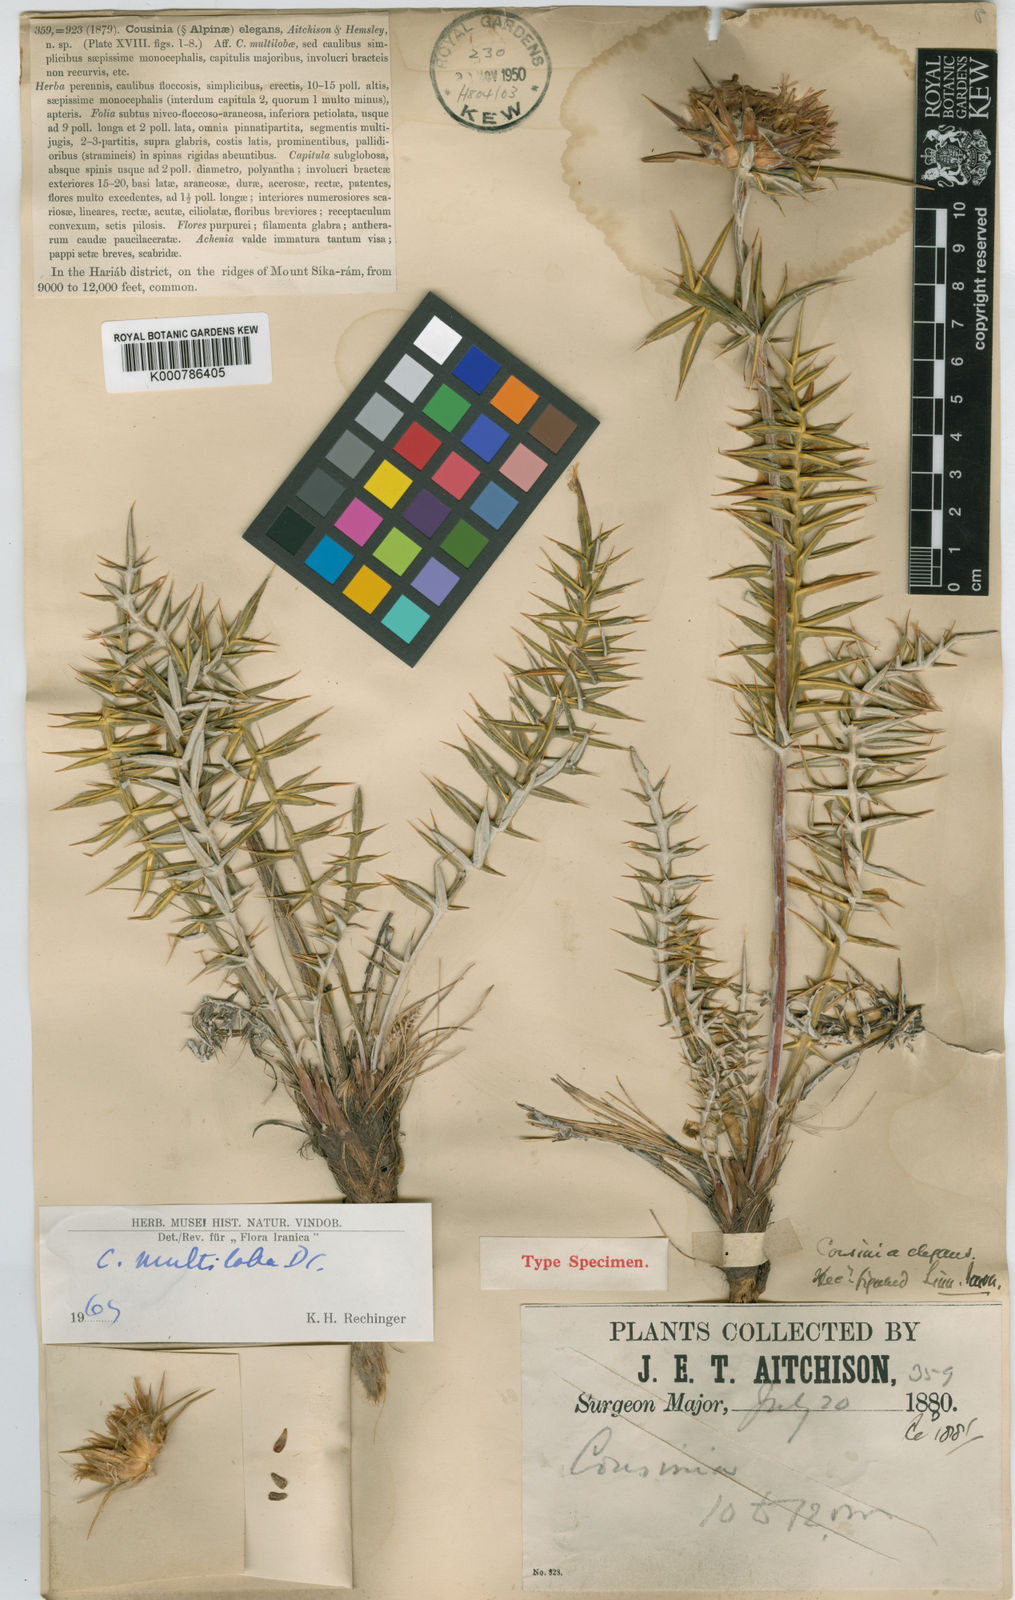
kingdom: Plantae
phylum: Tracheophyta
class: Magnoliopsida
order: Asterales
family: Asteraceae
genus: Cousinia
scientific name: Cousinia multiloba
